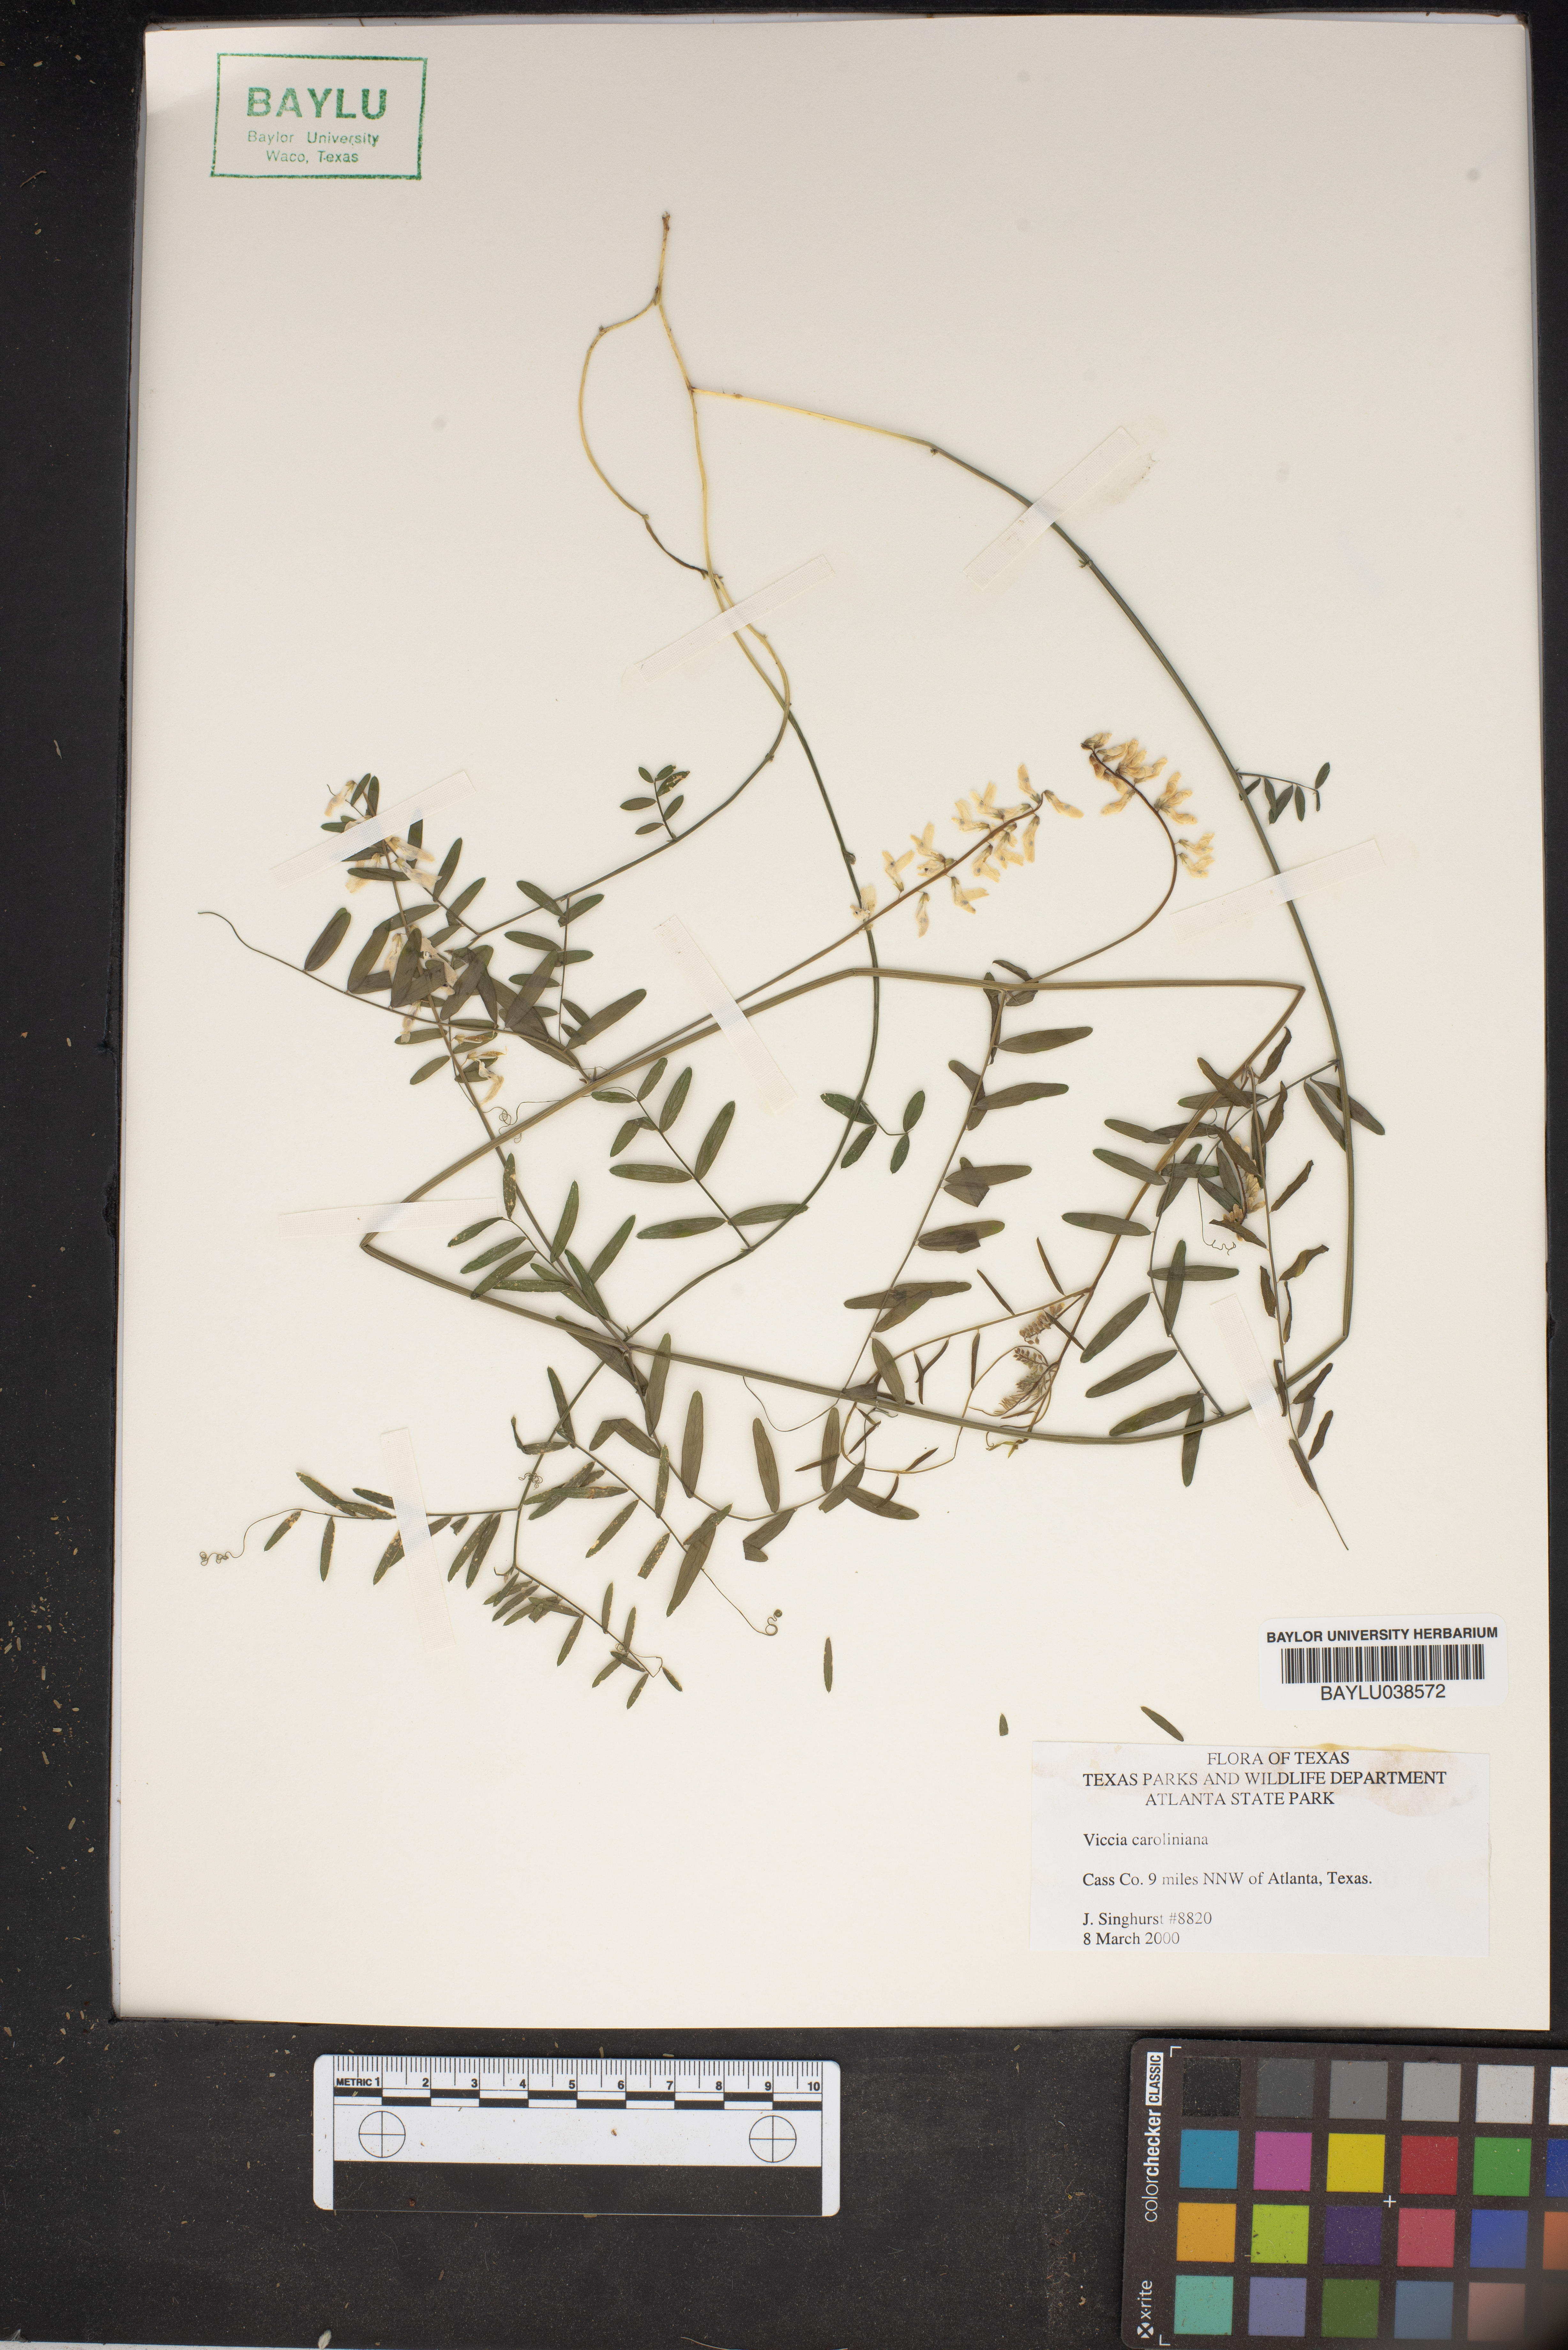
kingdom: Plantae
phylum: Tracheophyta
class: Magnoliopsida
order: Fabales
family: Fabaceae
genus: Vicia
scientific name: Vicia caroliniana
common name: Carolina vetch
